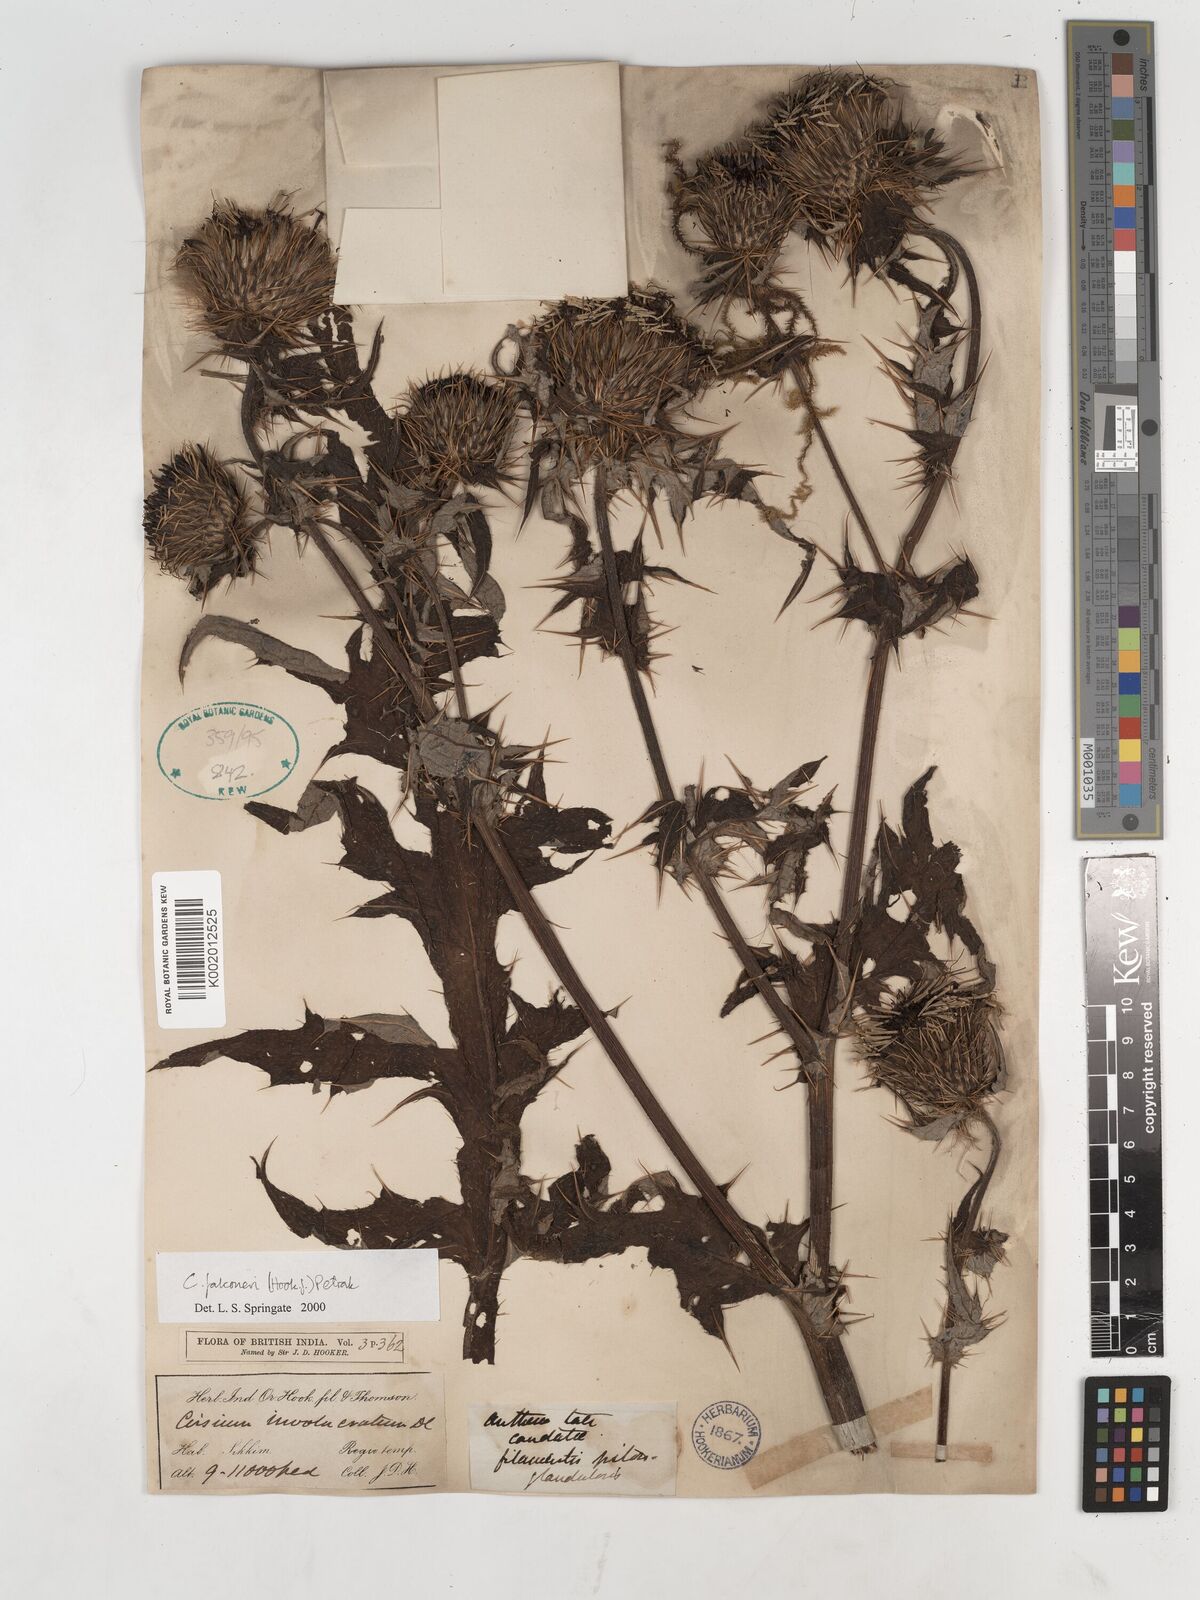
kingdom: Plantae
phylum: Tracheophyta
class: Magnoliopsida
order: Asterales
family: Asteraceae
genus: Cirsium
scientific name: Cirsium falconeri
